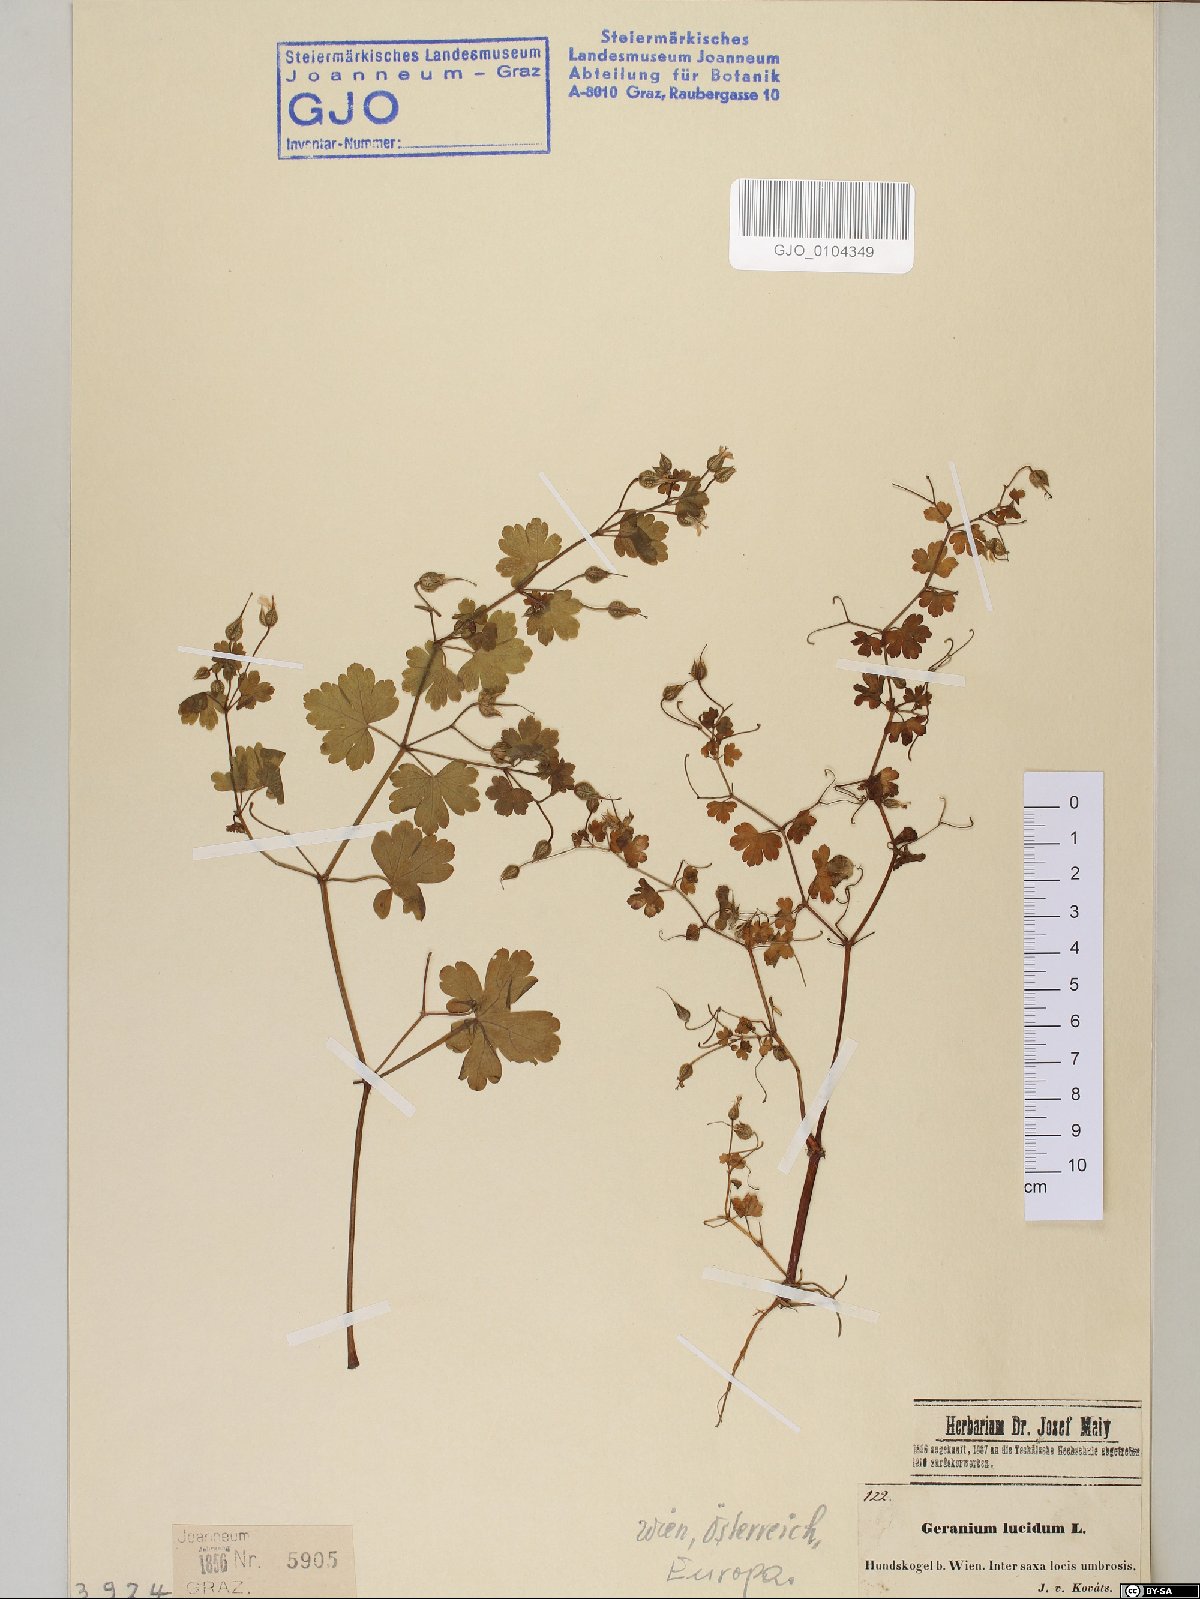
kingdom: Plantae
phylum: Tracheophyta
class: Magnoliopsida
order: Geraniales
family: Geraniaceae
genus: Geranium
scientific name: Geranium lucidum
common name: Shining crane's-bill
